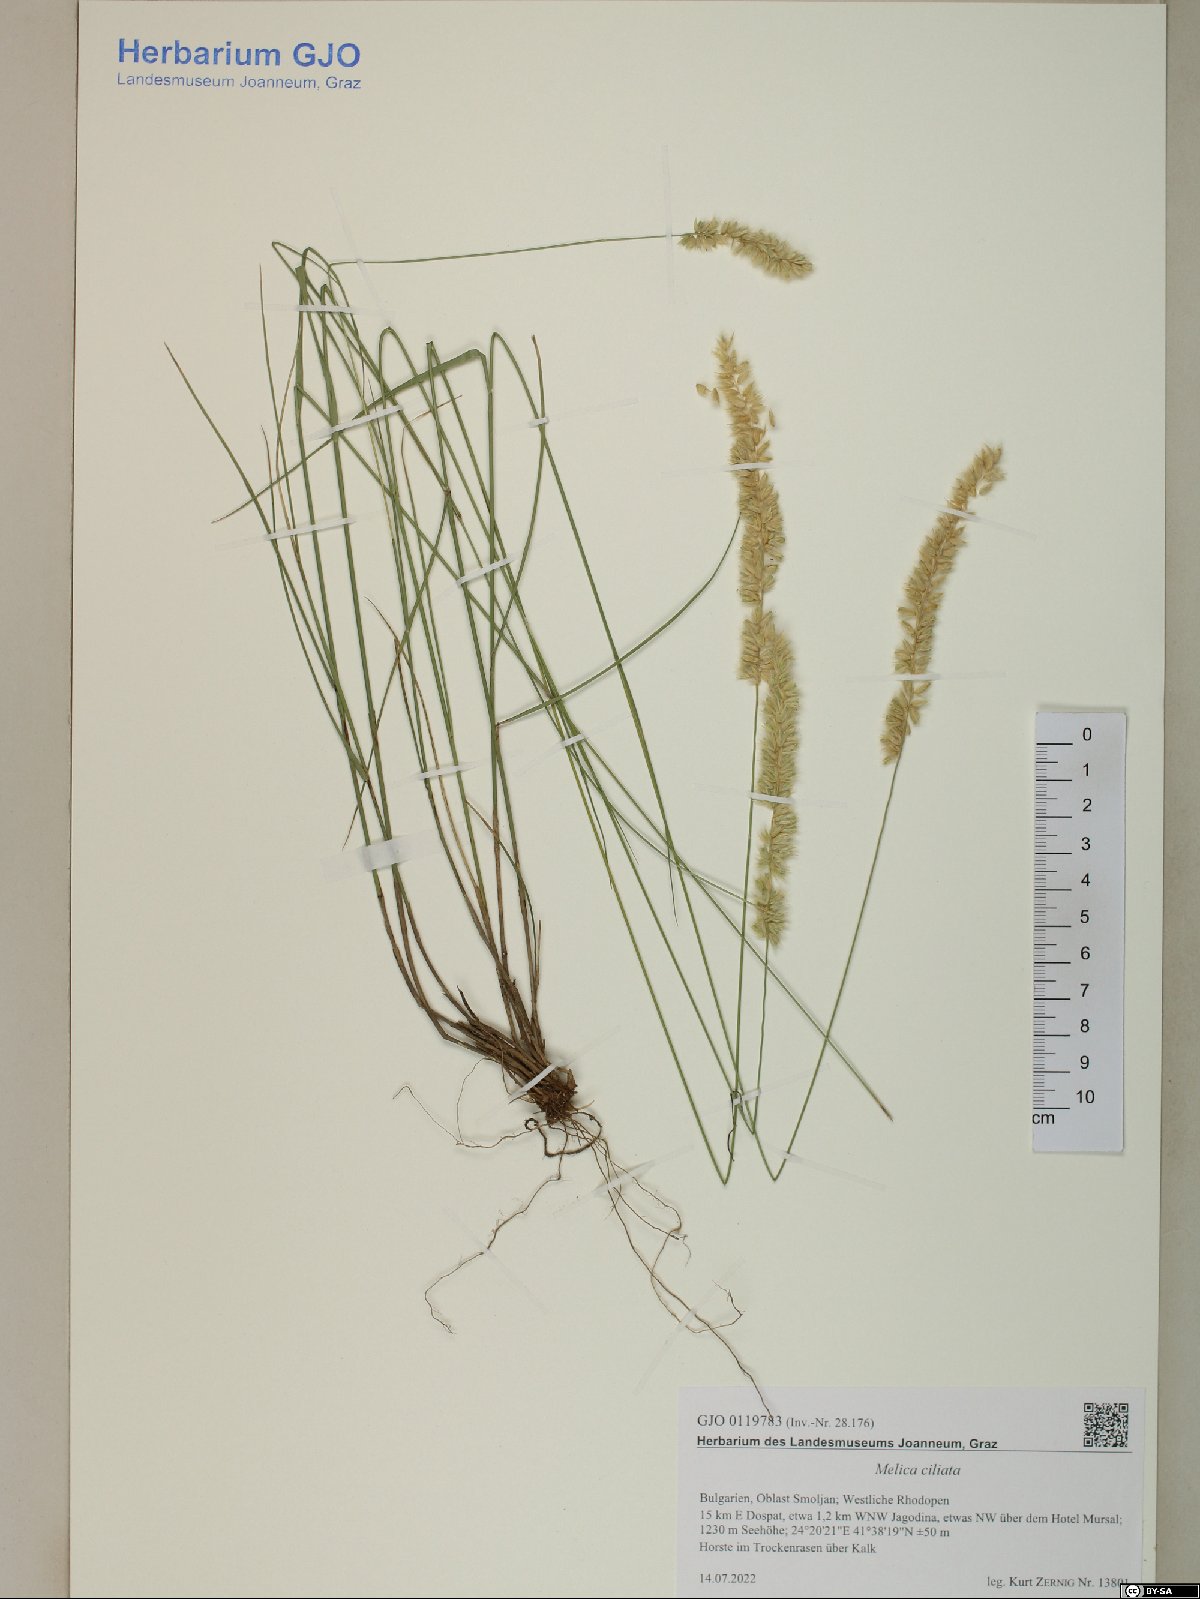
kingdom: Plantae
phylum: Tracheophyta
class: Liliopsida
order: Poales
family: Poaceae
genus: Melica
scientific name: Melica ciliata
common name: Hairy melicgrass
